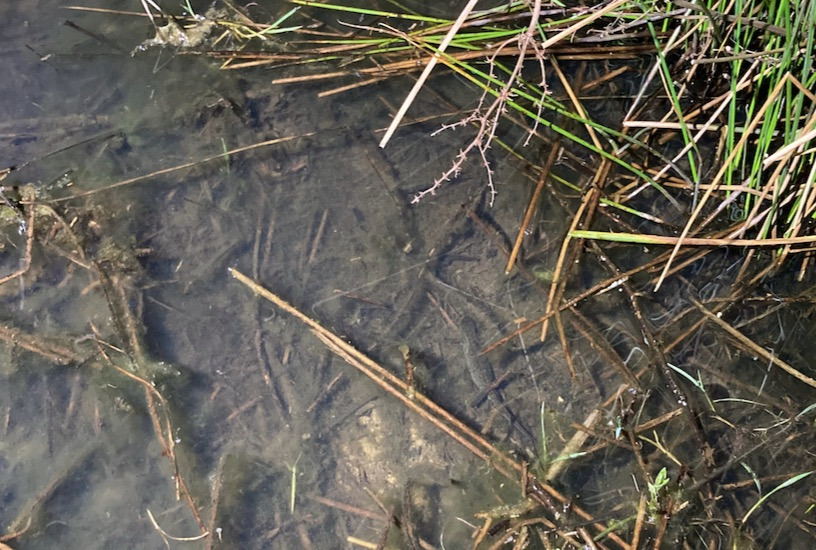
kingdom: Animalia
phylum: Chordata
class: Amphibia
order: Caudata
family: Salamandridae
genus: Triturus
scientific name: Triturus cristatus
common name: Stor vandsalamander
